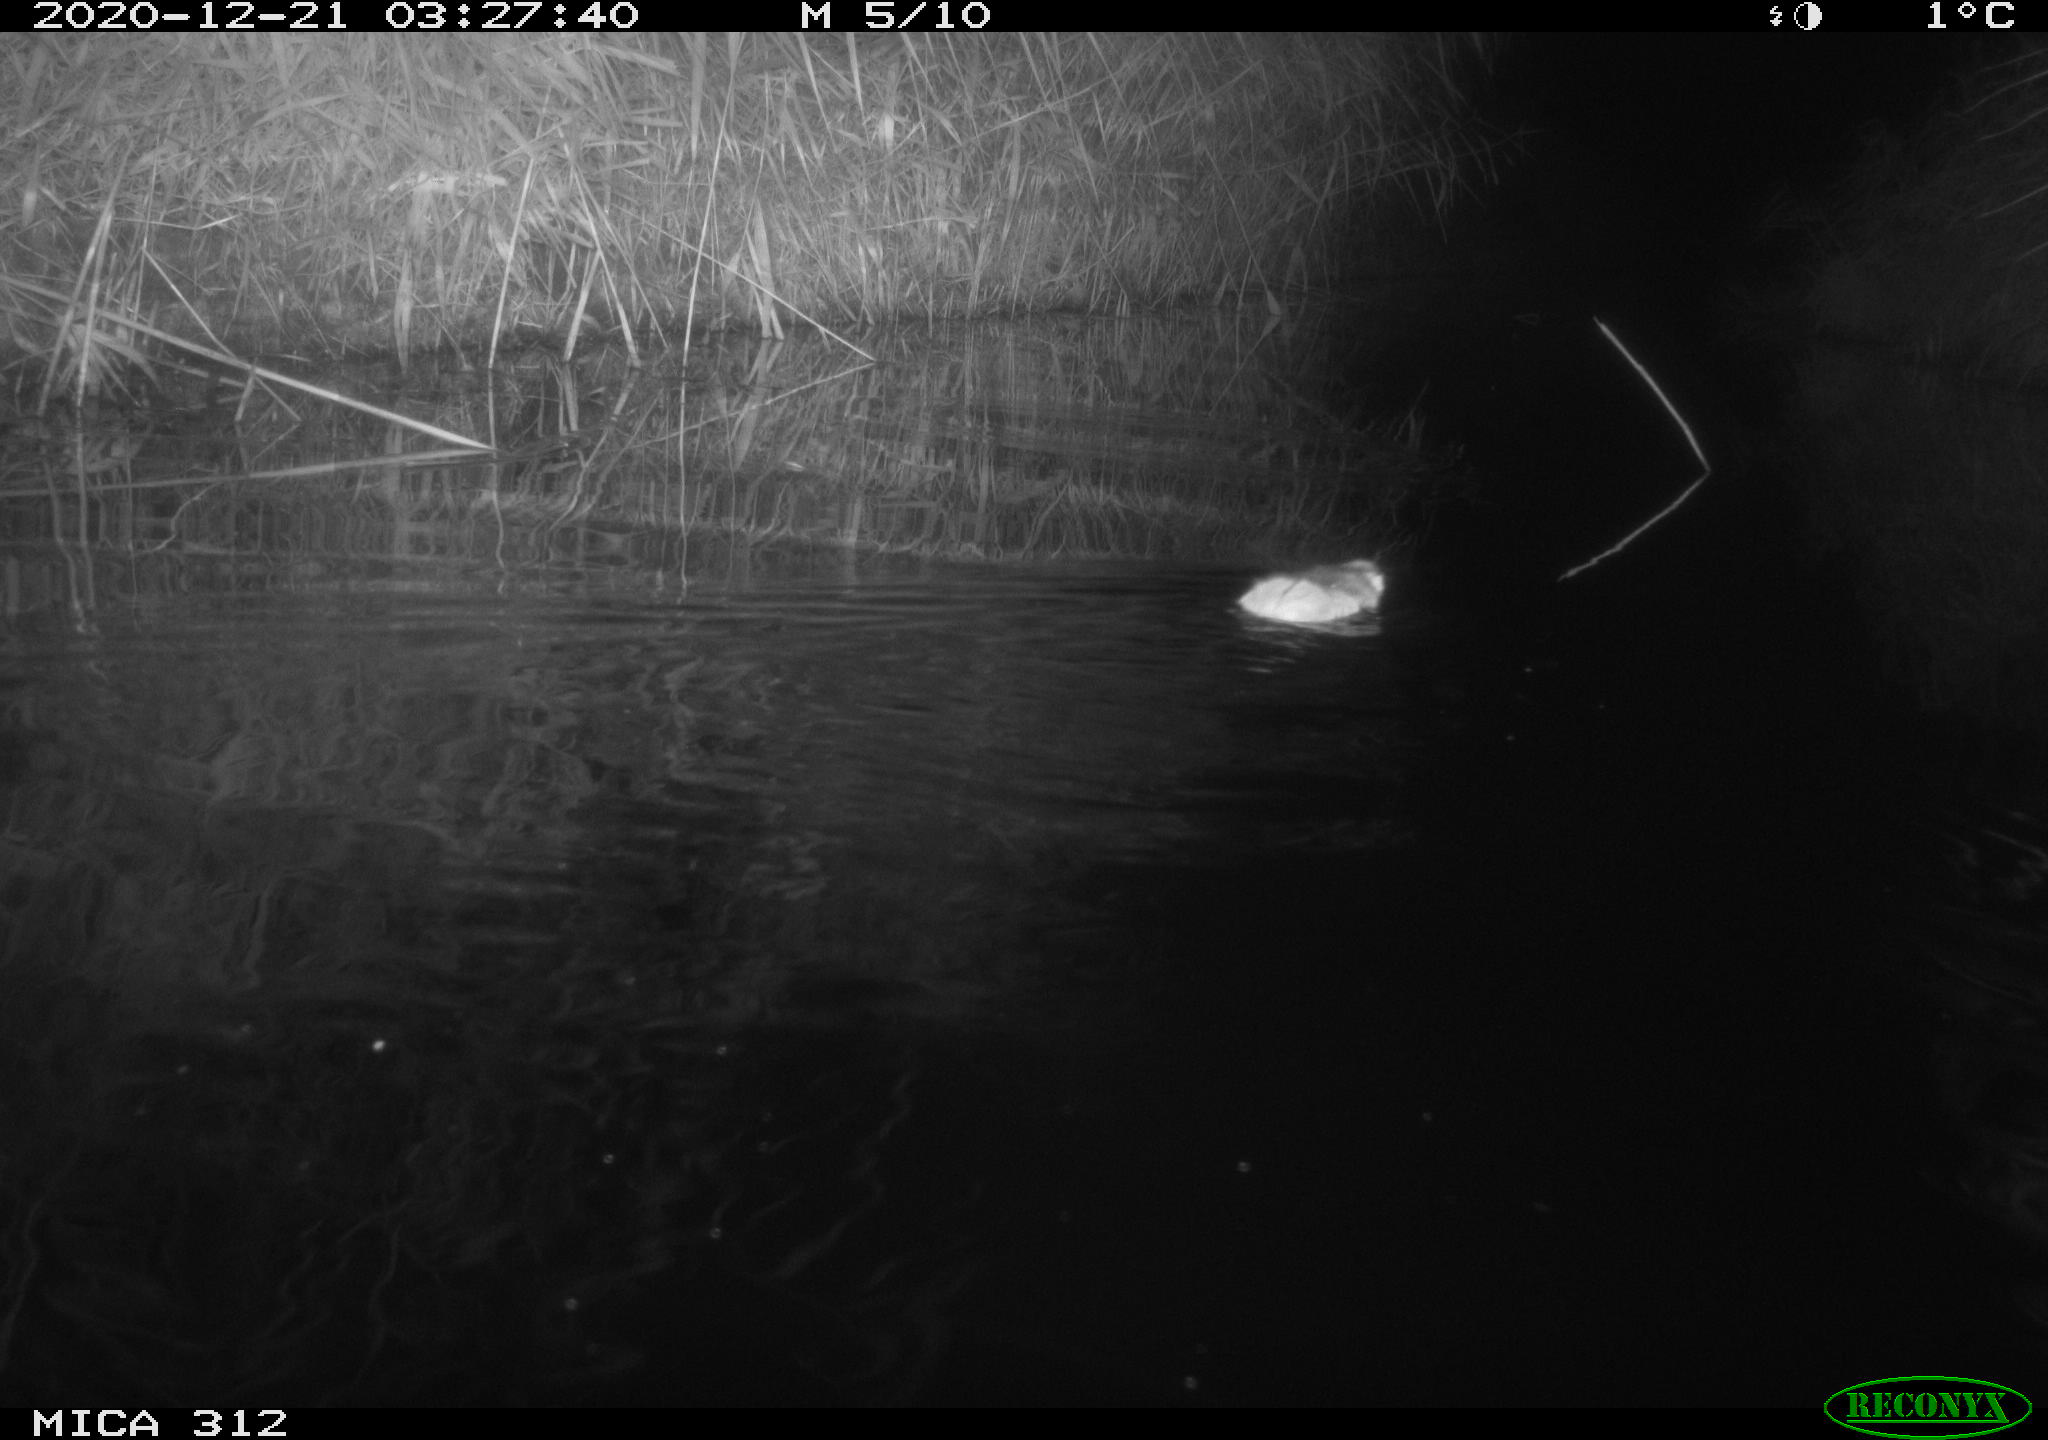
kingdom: Animalia
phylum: Chordata
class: Mammalia
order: Rodentia
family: Muridae
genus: Rattus
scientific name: Rattus norvegicus
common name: Brown rat
